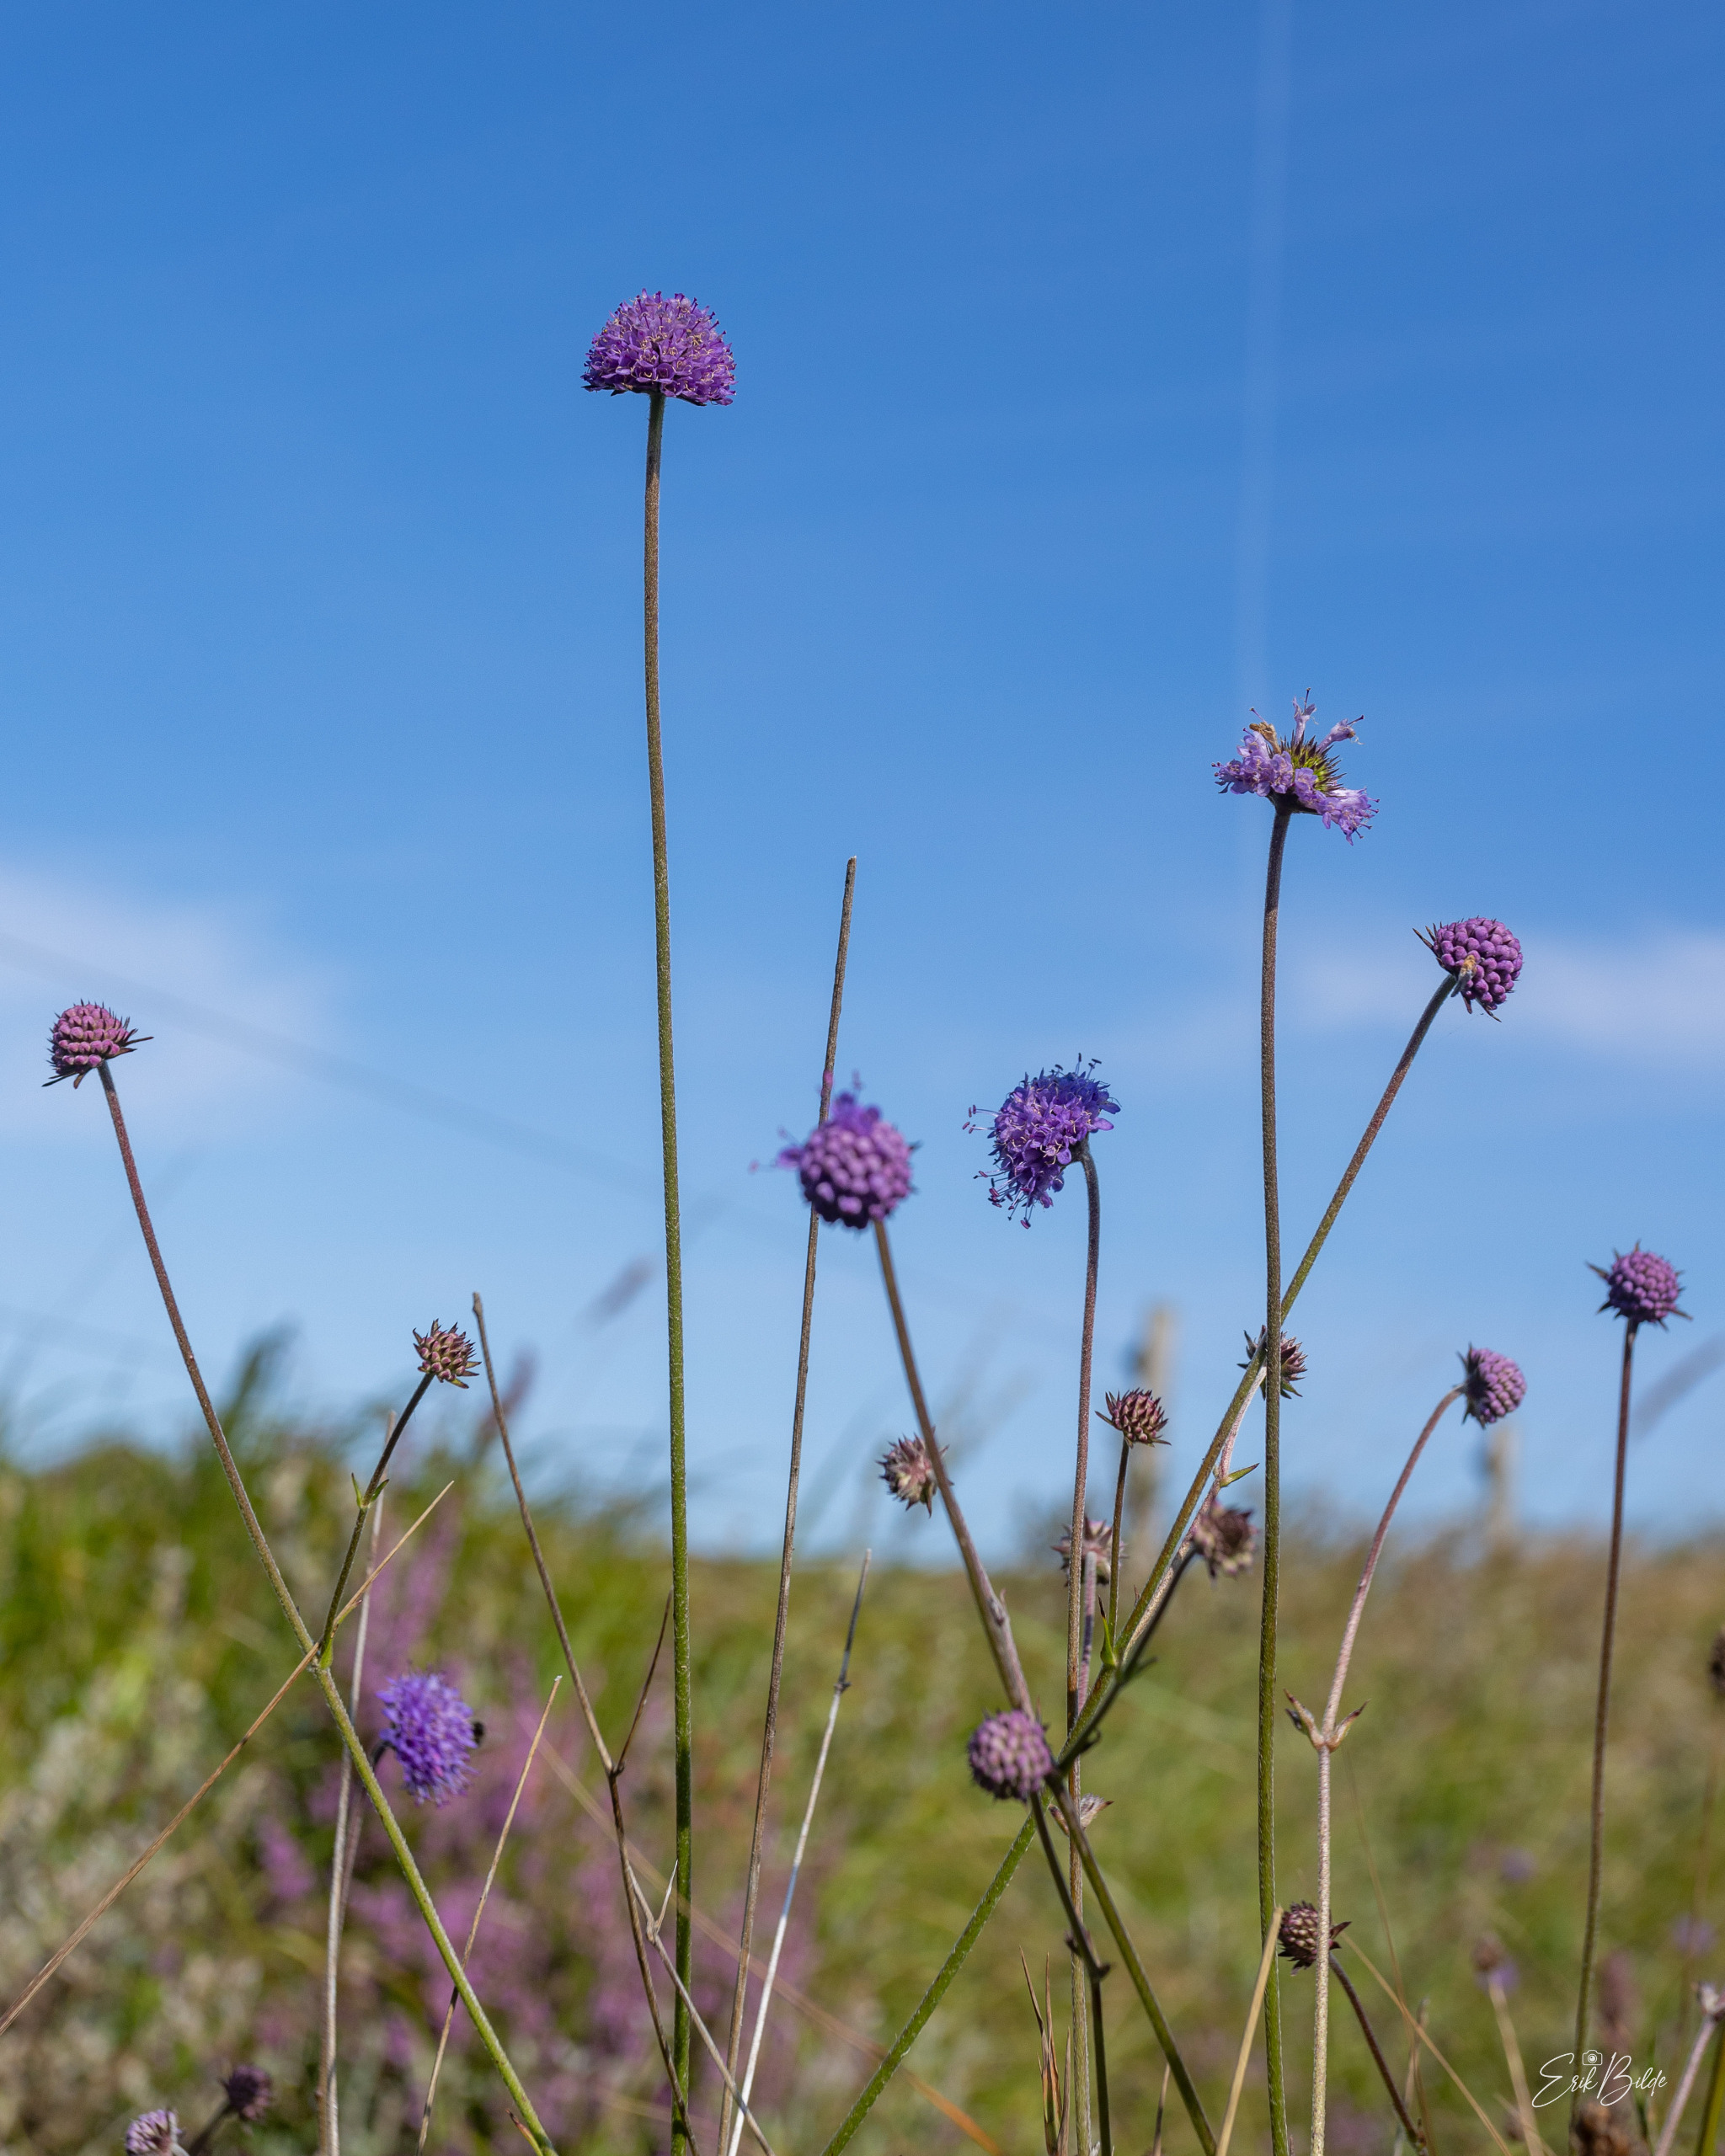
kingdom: Plantae
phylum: Tracheophyta
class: Magnoliopsida
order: Dipsacales
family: Caprifoliaceae
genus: Succisa
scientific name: Succisa pratensis
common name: Djævelsbid
